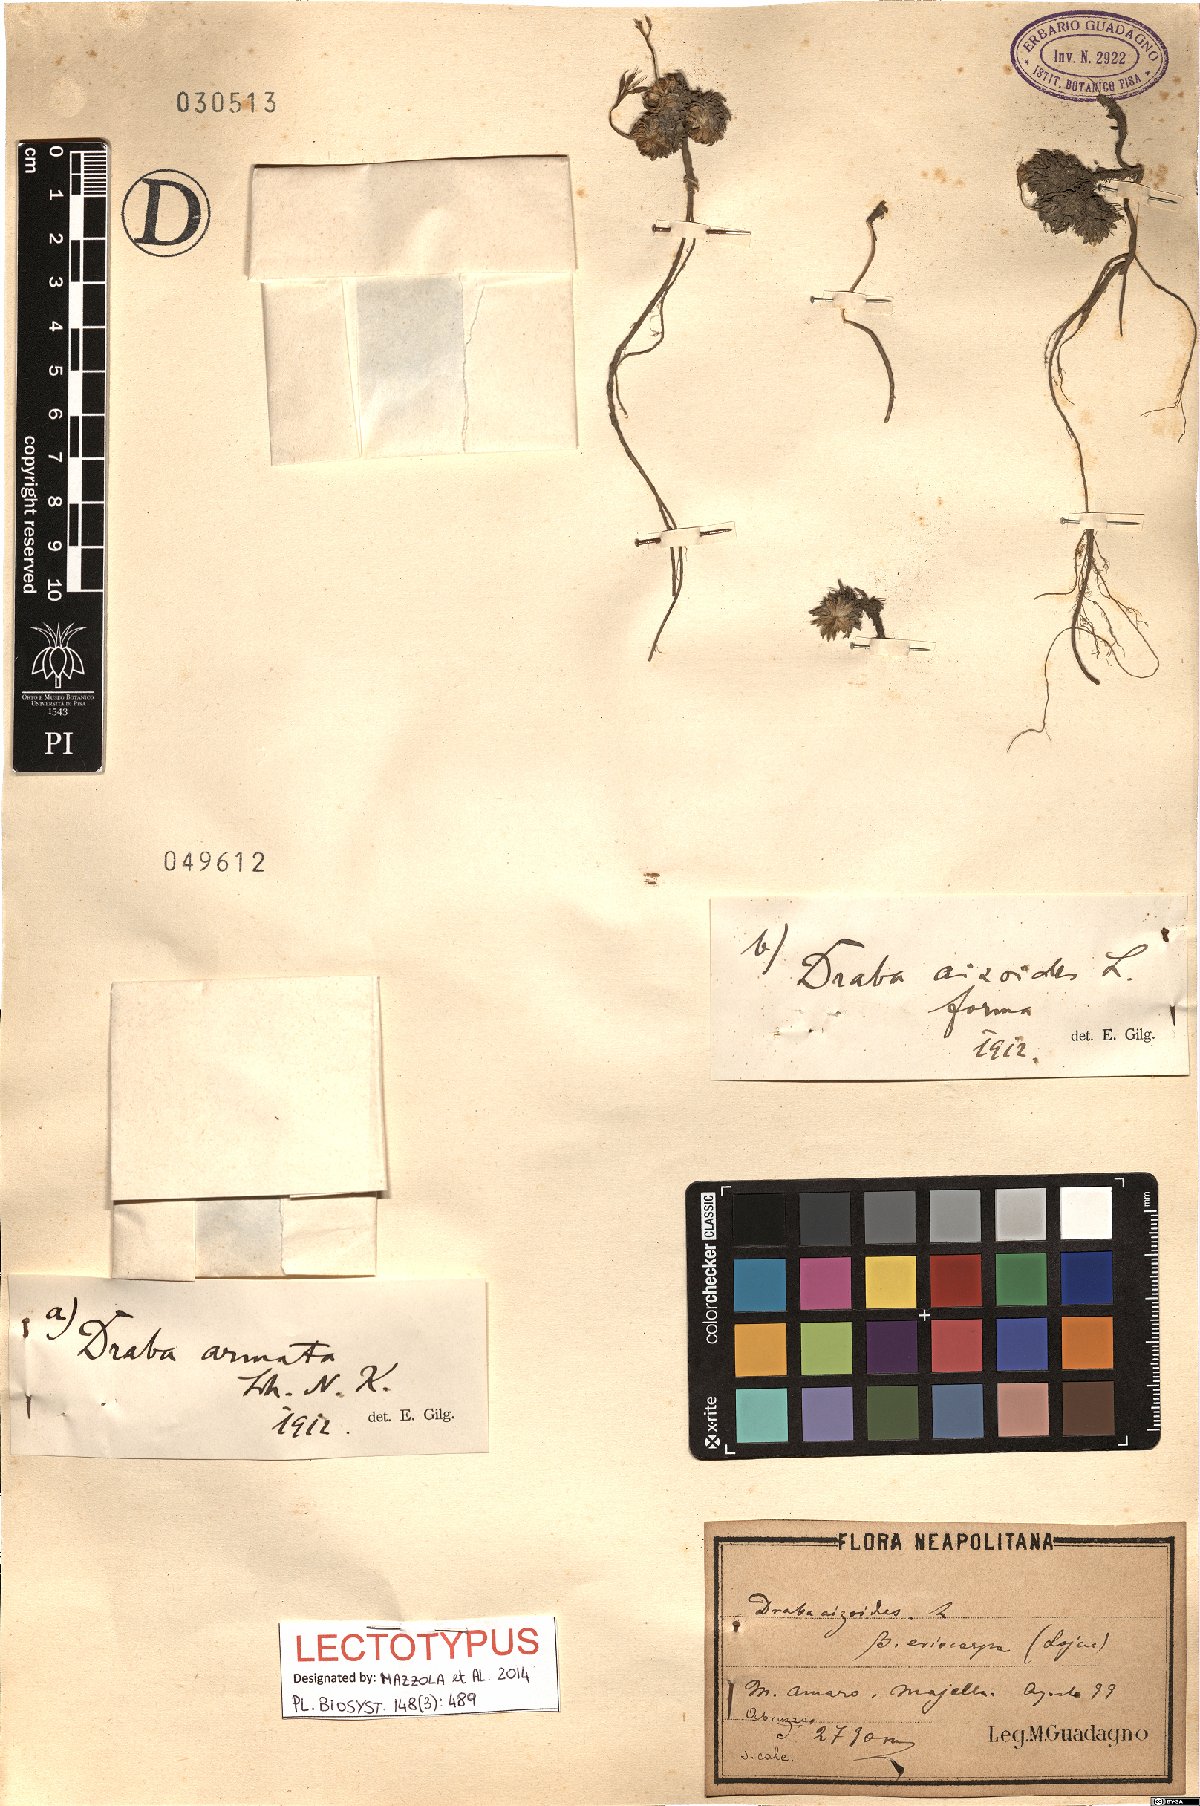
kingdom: Plantae
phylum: Tracheophyta
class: Magnoliopsida
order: Brassicales
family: Brassicaceae
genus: Draba
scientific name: Draba aspera
